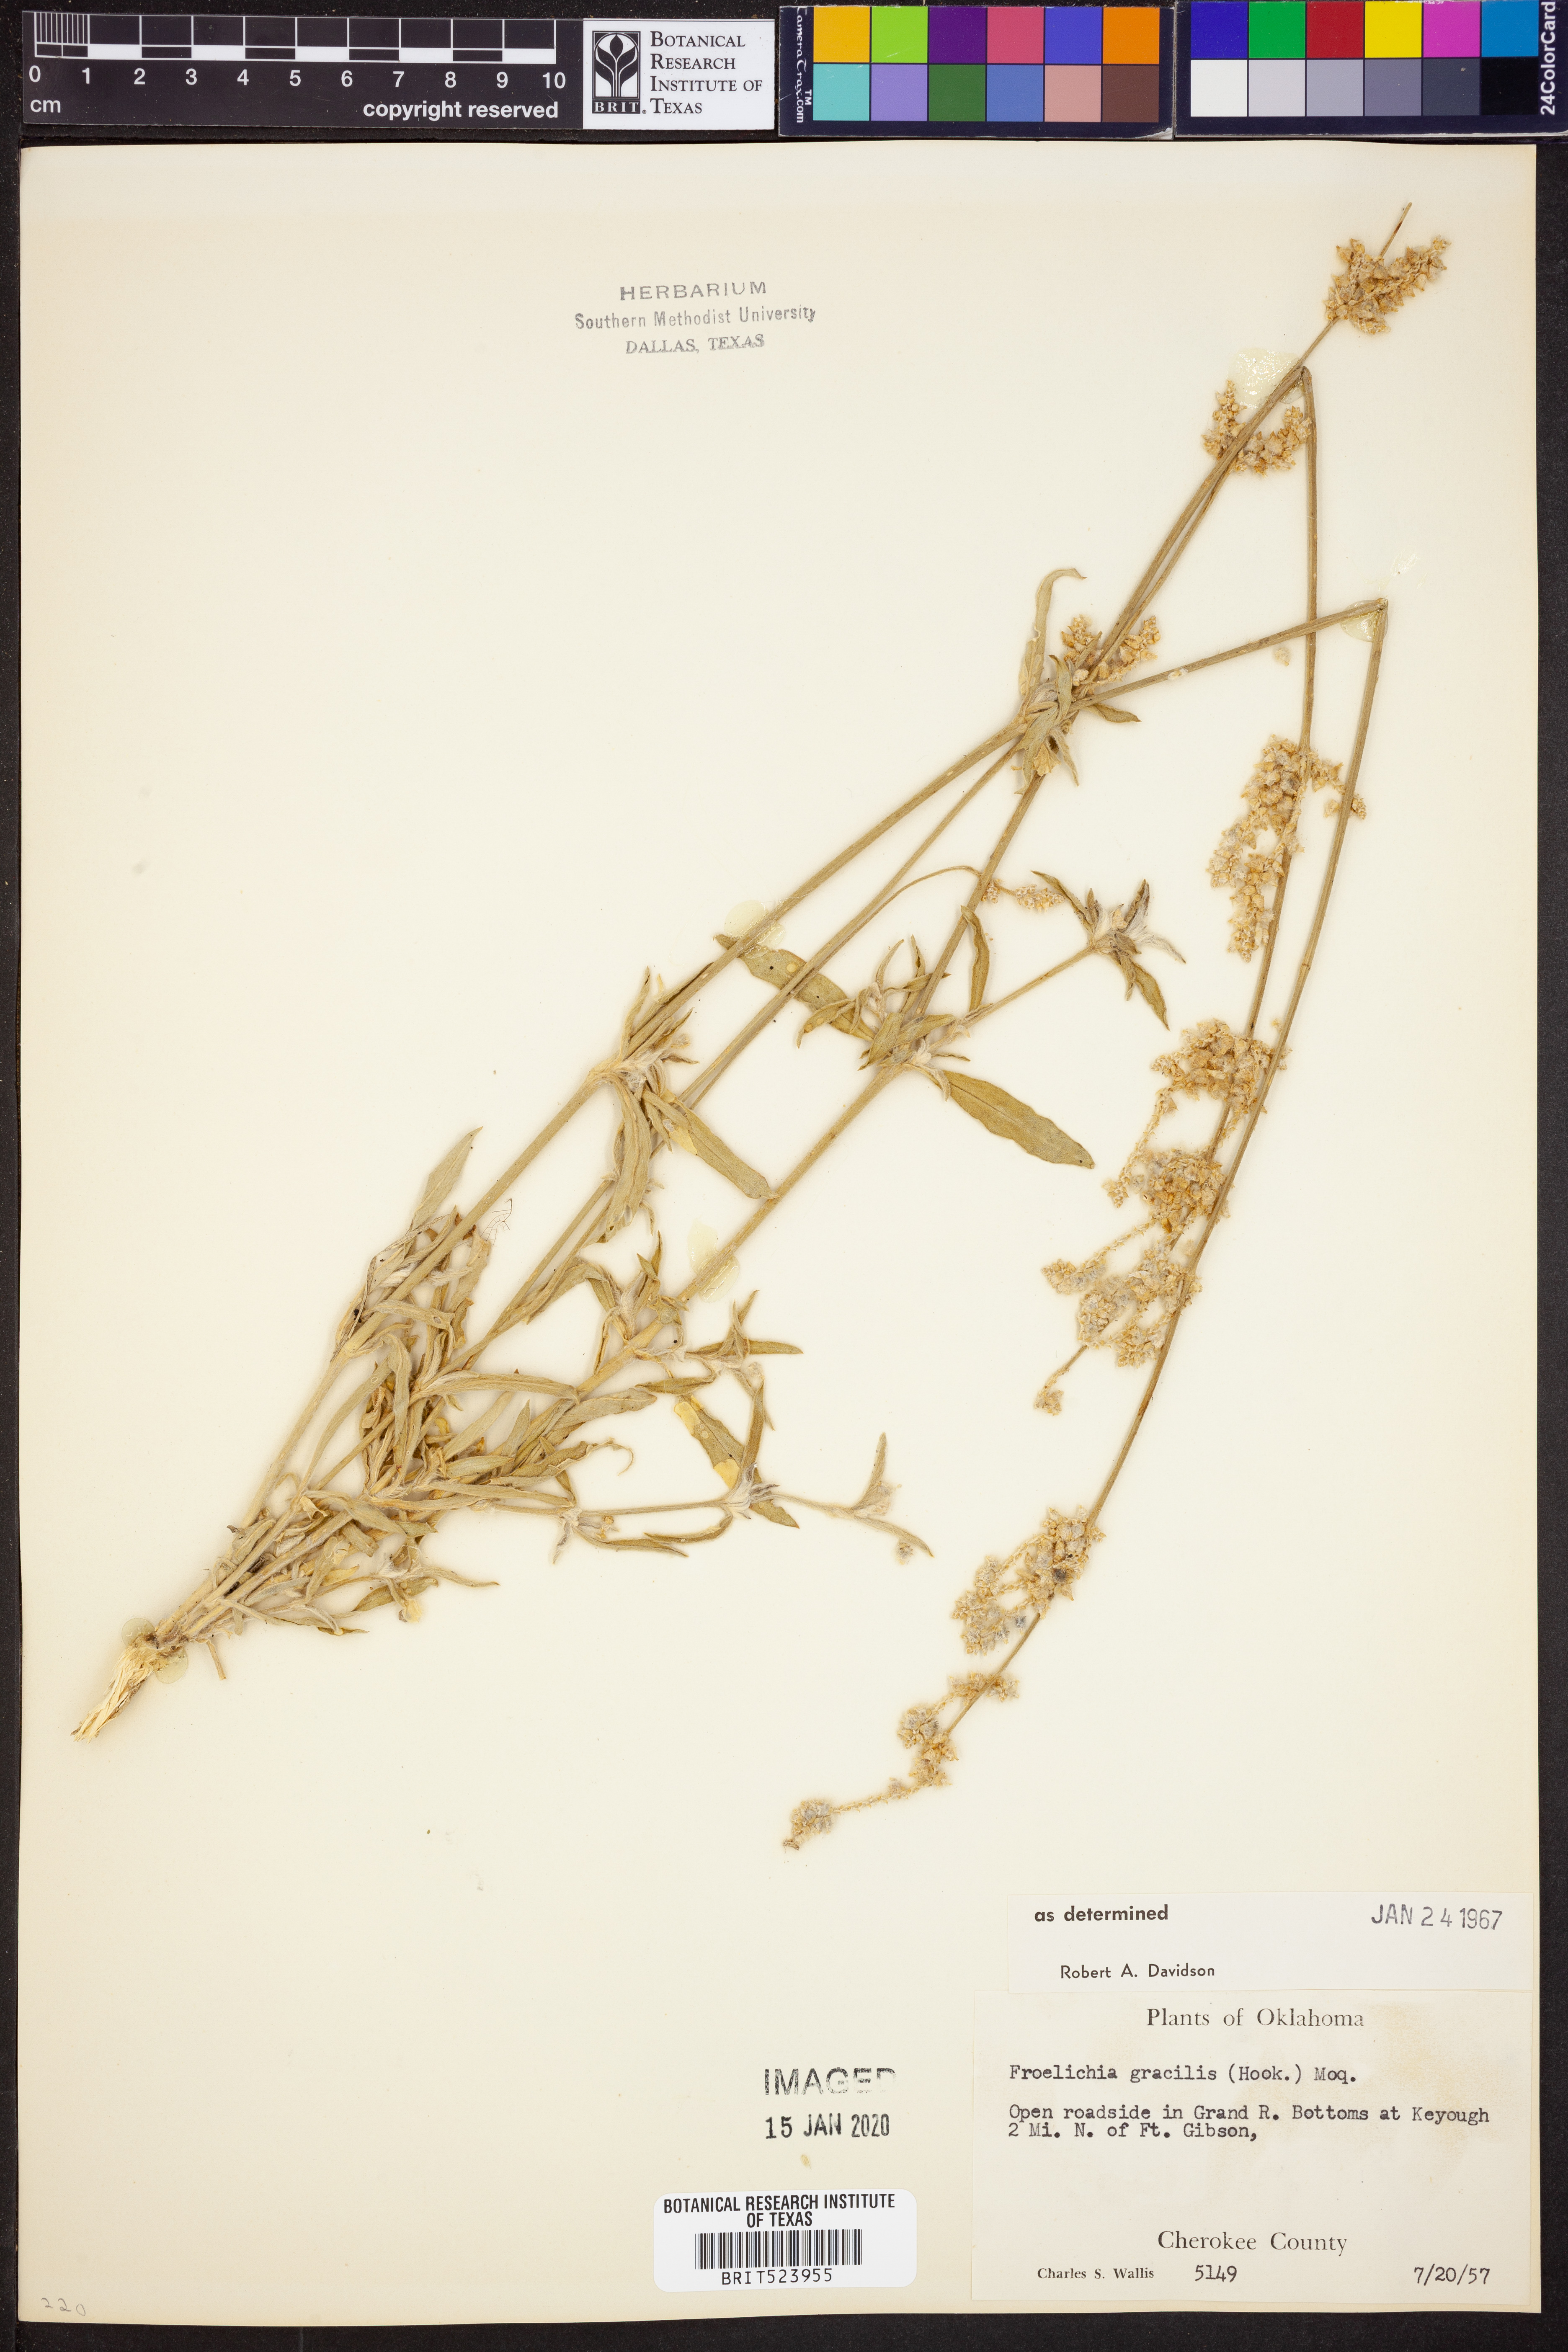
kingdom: Plantae
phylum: Tracheophyta
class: Magnoliopsida
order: Caryophyllales
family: Amaranthaceae
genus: Froelichia
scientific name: Froelichia gracilis
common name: Slender cottonweed
